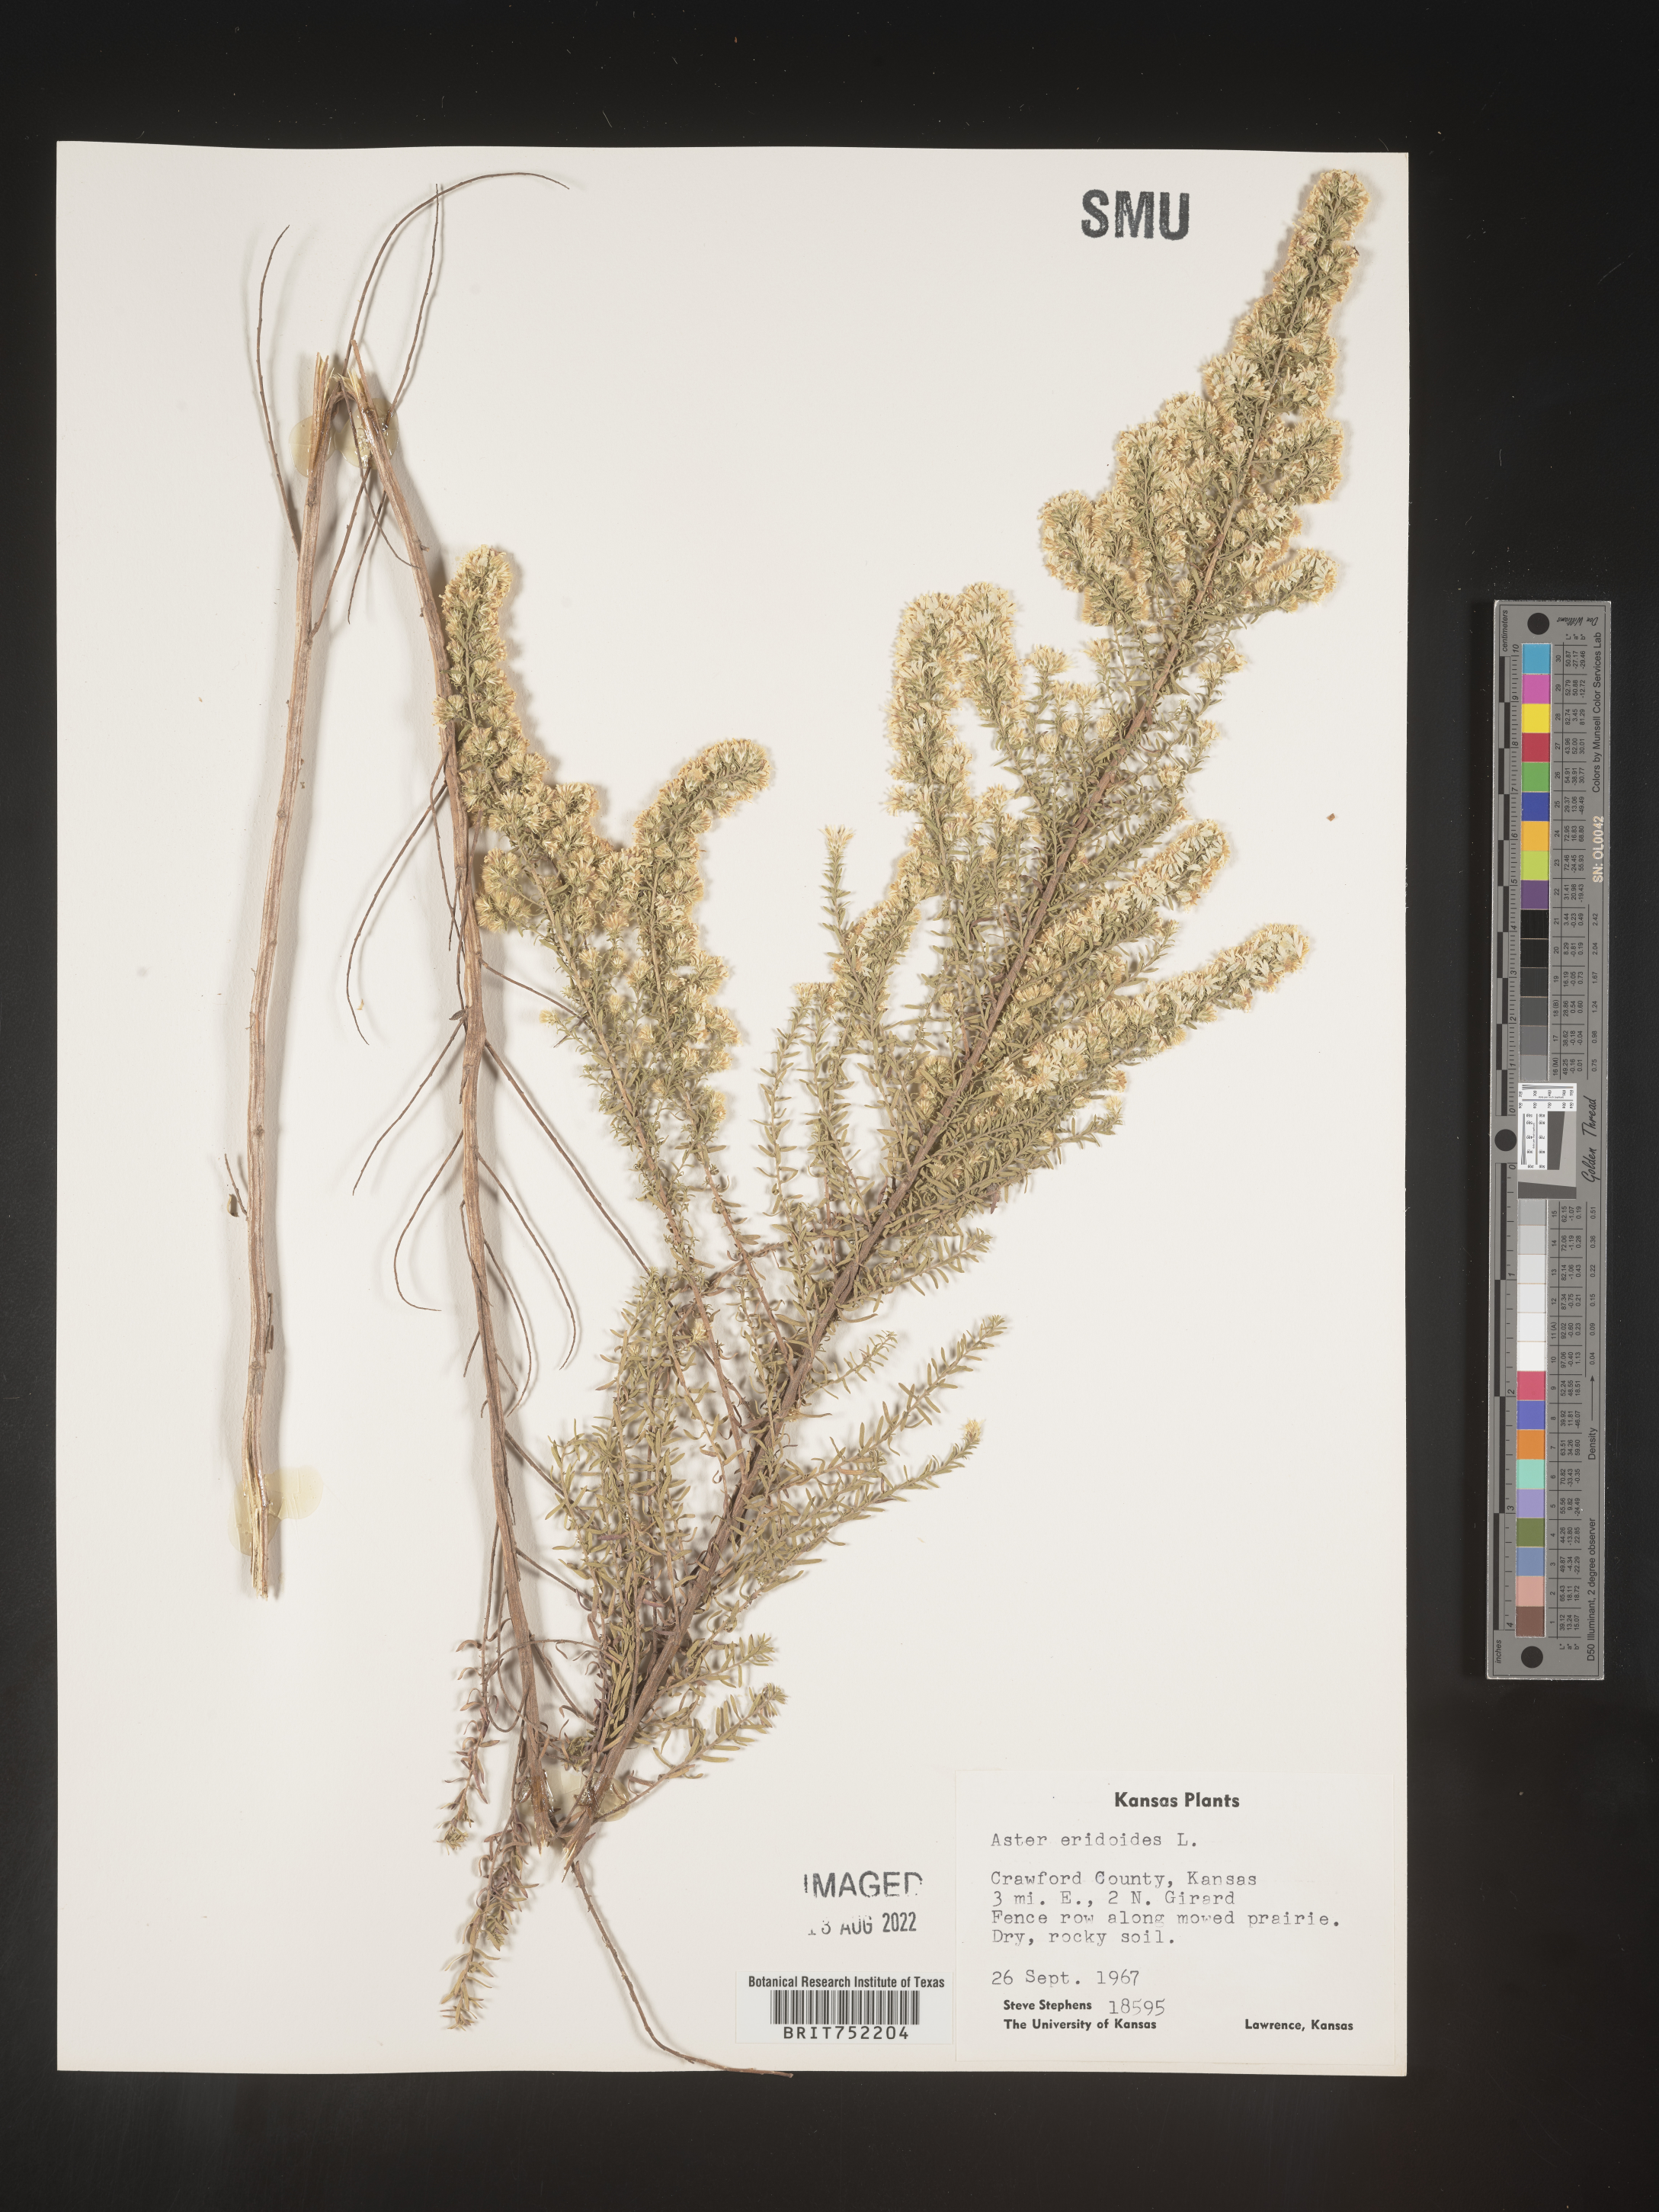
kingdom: Plantae
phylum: Tracheophyta
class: Magnoliopsida
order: Asterales
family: Asteraceae
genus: Symphyotrichum
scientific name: Symphyotrichum ericoides
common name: Heath aster
